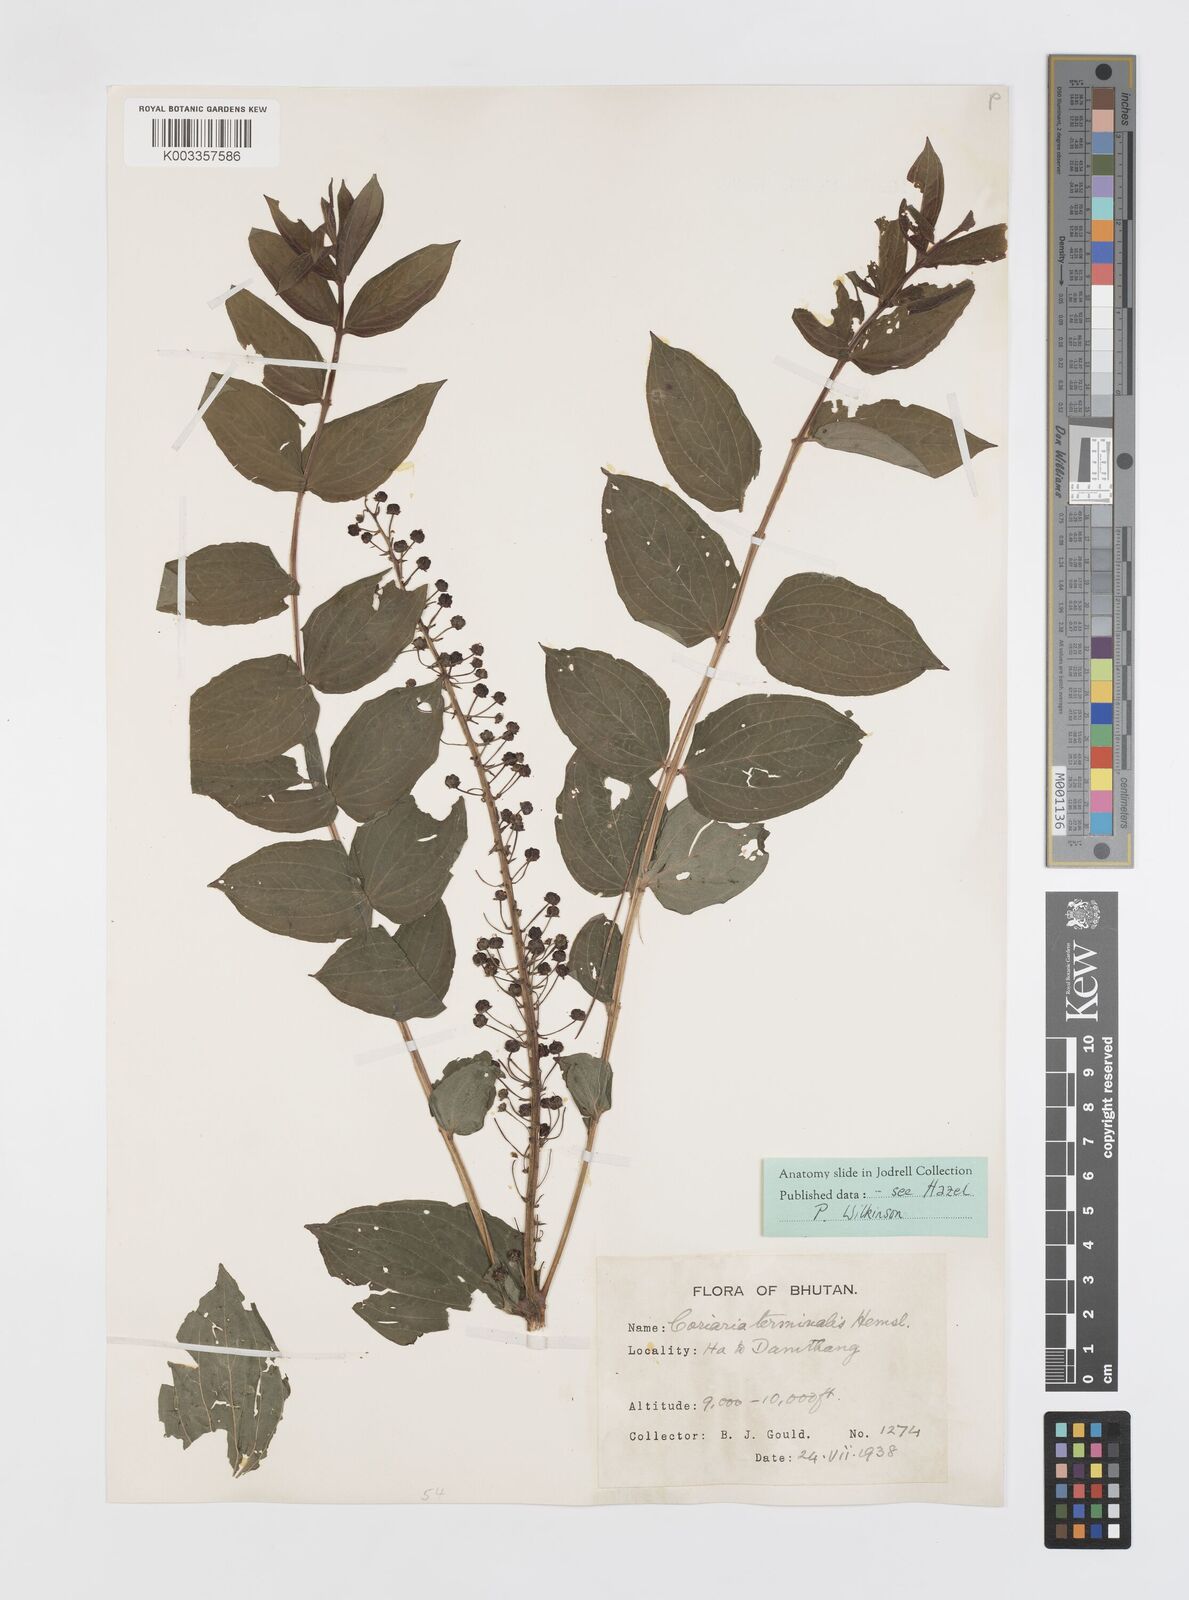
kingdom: Plantae
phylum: Tracheophyta
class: Magnoliopsida
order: Cucurbitales
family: Coriariaceae
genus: Coriaria
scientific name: Coriaria terminalis
